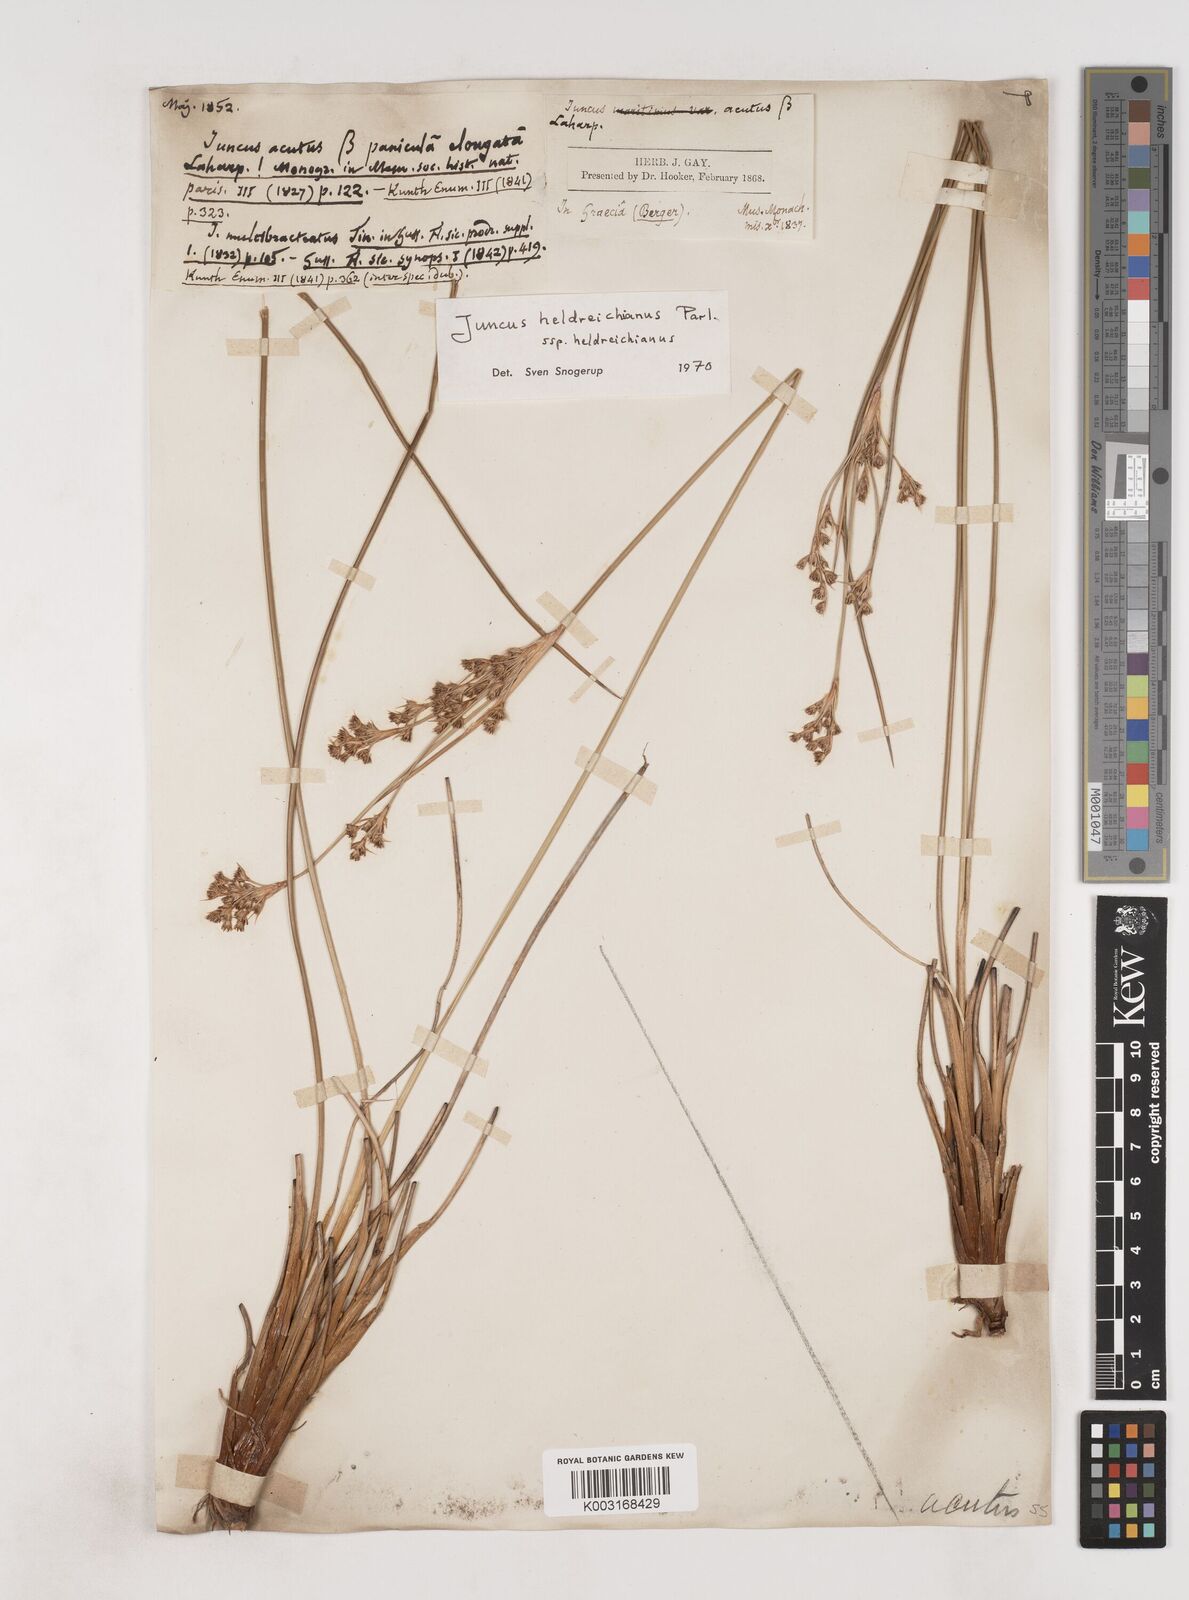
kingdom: Plantae
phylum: Tracheophyta
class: Liliopsida
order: Poales
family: Juncaceae
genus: Juncus
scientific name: Juncus heldreichianus
